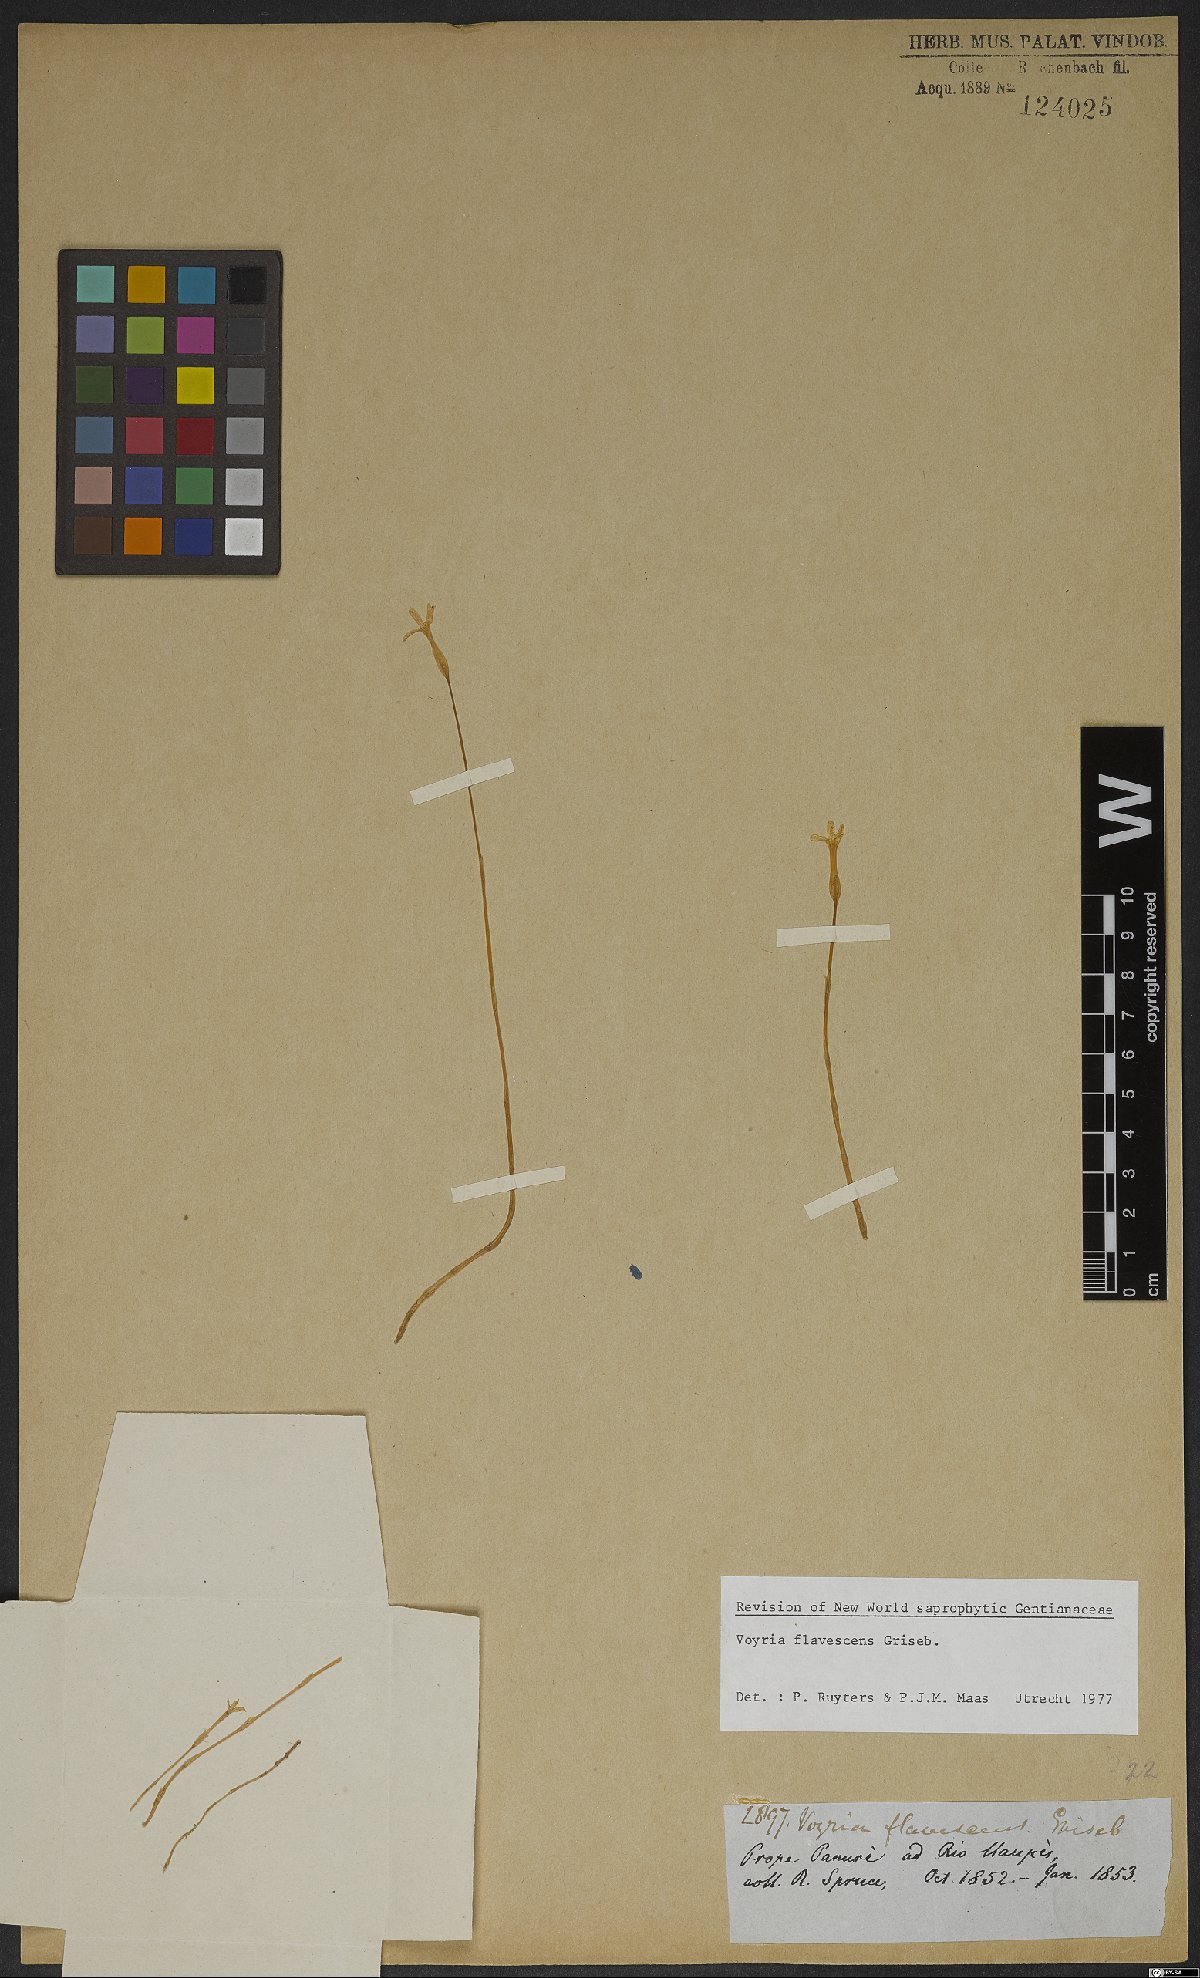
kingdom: Plantae
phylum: Tracheophyta
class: Magnoliopsida
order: Gentianales
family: Gentianaceae
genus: Voyria
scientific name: Voyria flavescens
